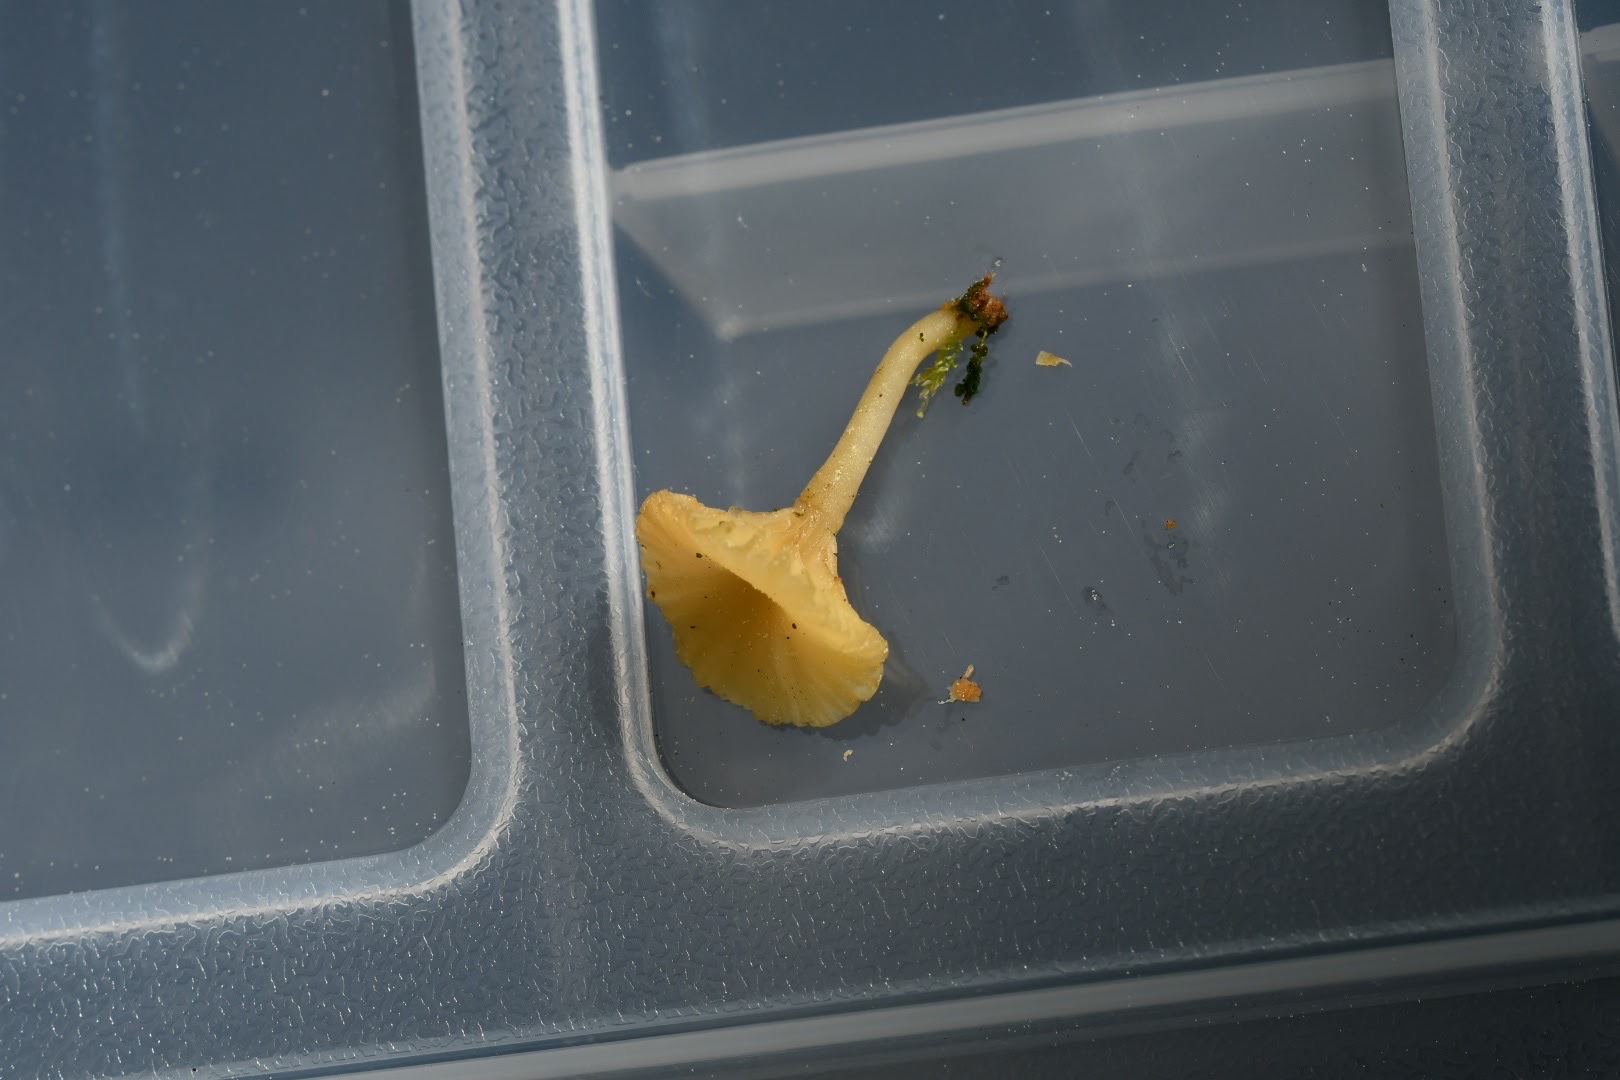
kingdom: Fungi
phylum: Basidiomycota
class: Agaricomycetes
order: Agaricales
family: Hygrophoraceae
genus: Lichenomphalia
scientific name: Lichenomphalia umbellifera
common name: tørve-lavhat
